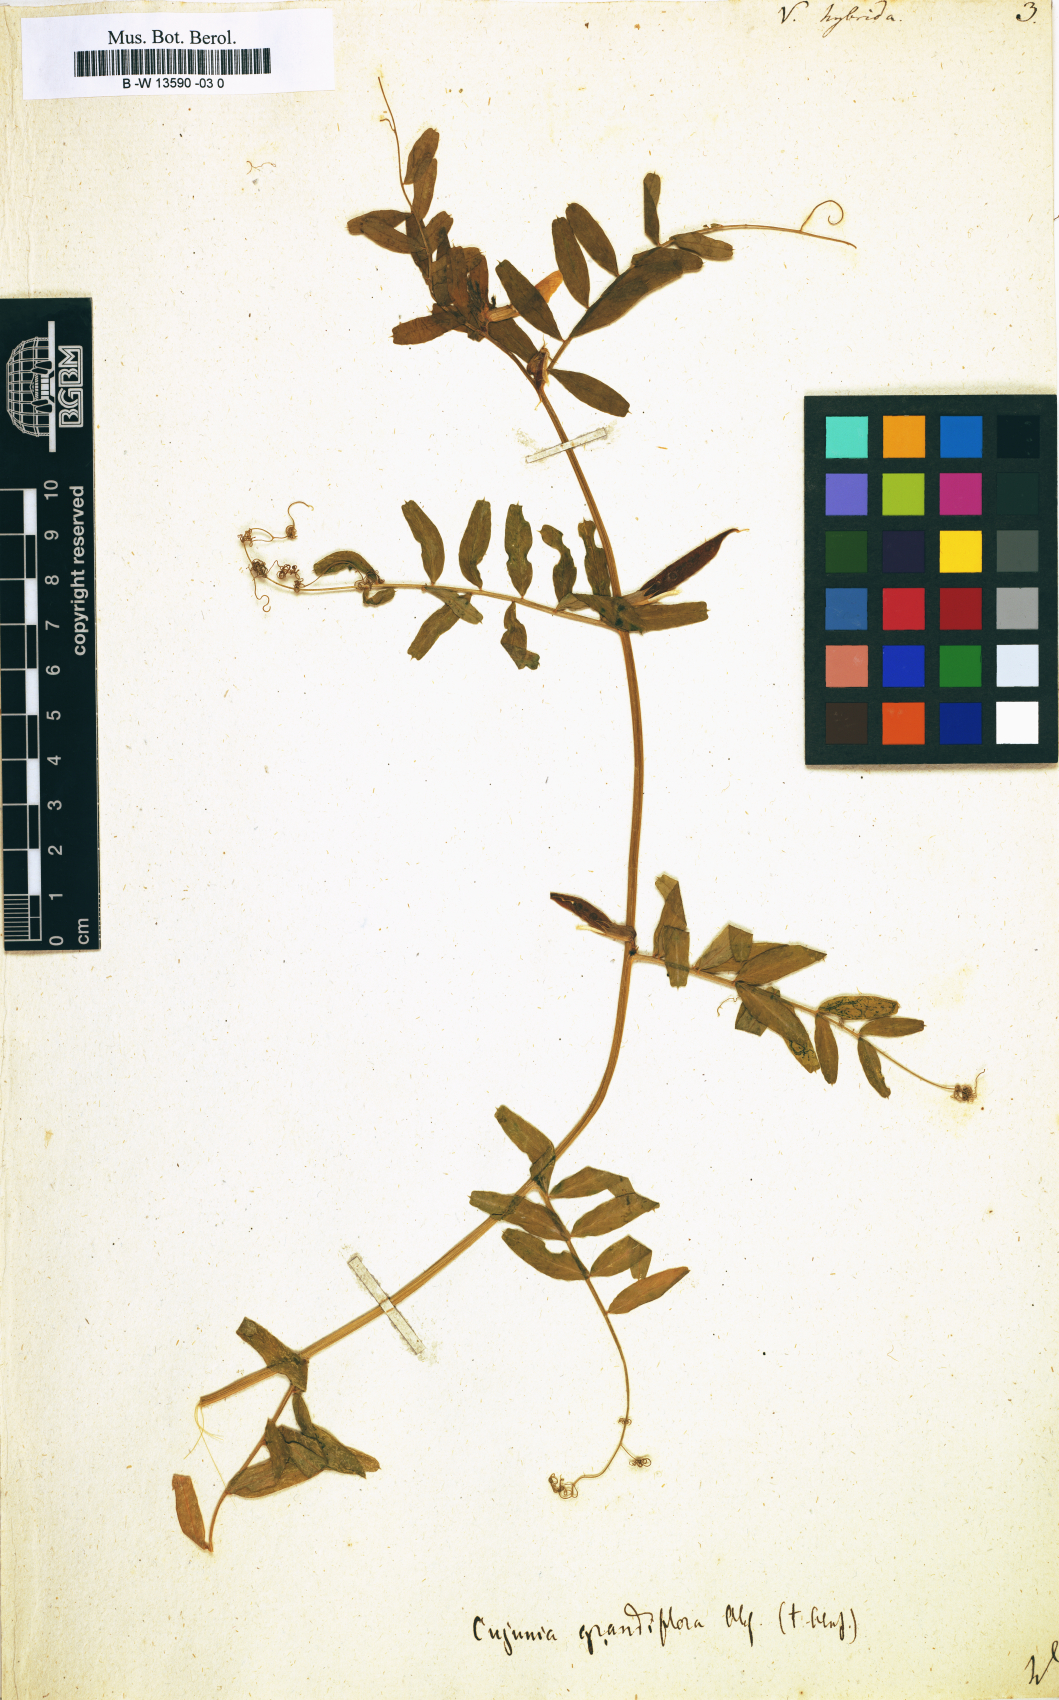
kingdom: Plantae
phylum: Tracheophyta
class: Magnoliopsida
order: Fabales
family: Fabaceae
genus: Vicia
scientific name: Vicia hybrida
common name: Hairy yellow vetch
